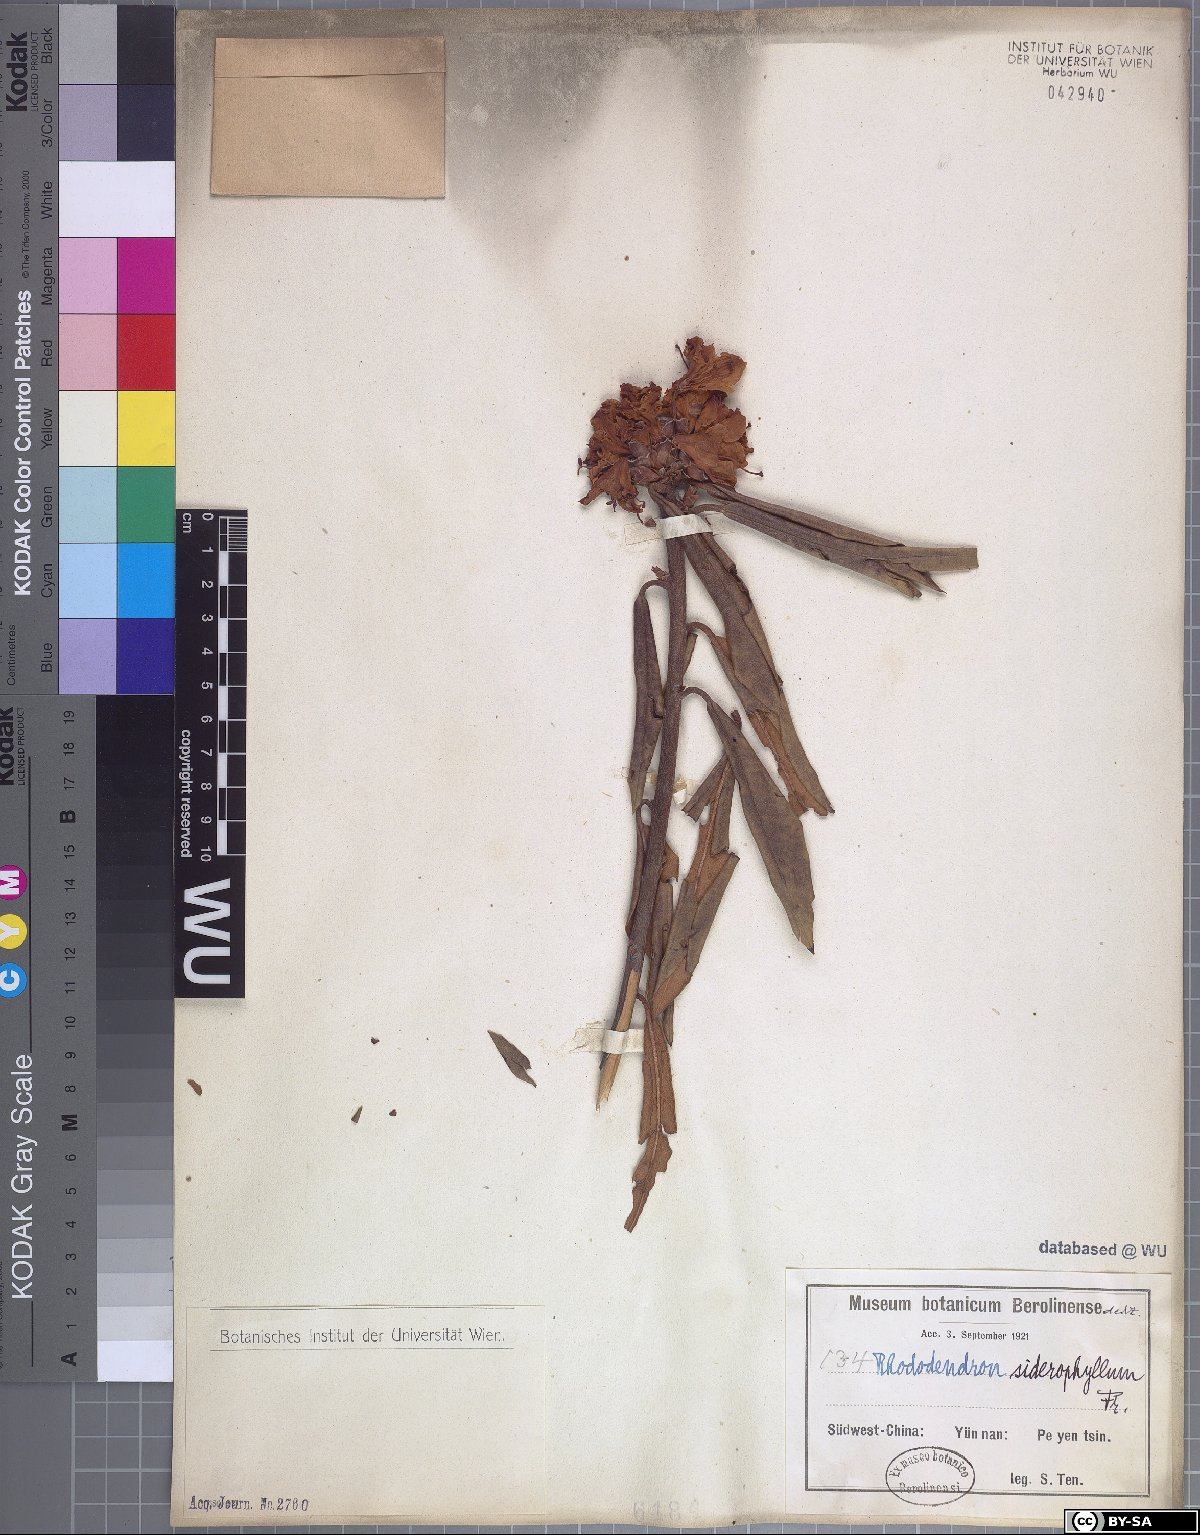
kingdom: Plantae
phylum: Tracheophyta
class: Magnoliopsida
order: Ericales
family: Ericaceae
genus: Rhododendron
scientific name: Rhododendron siderophyllum
